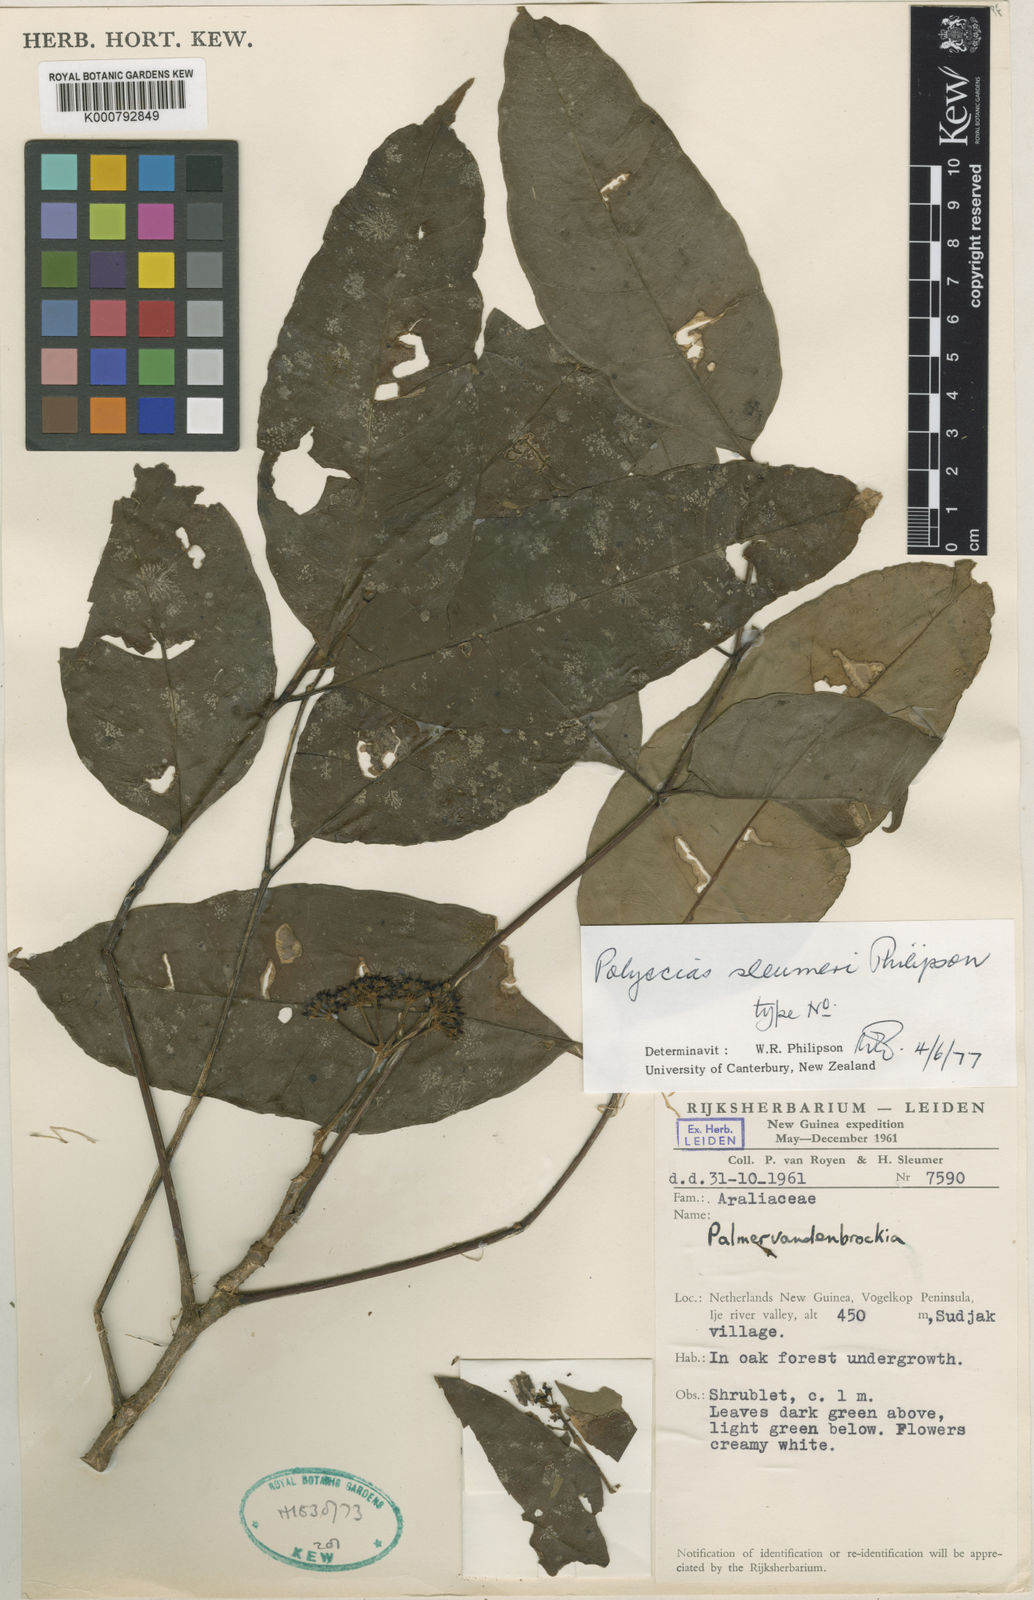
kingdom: Plantae
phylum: Tracheophyta
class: Magnoliopsida
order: Apiales
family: Araliaceae
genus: Polyscias
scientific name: Polyscias sleumeri
